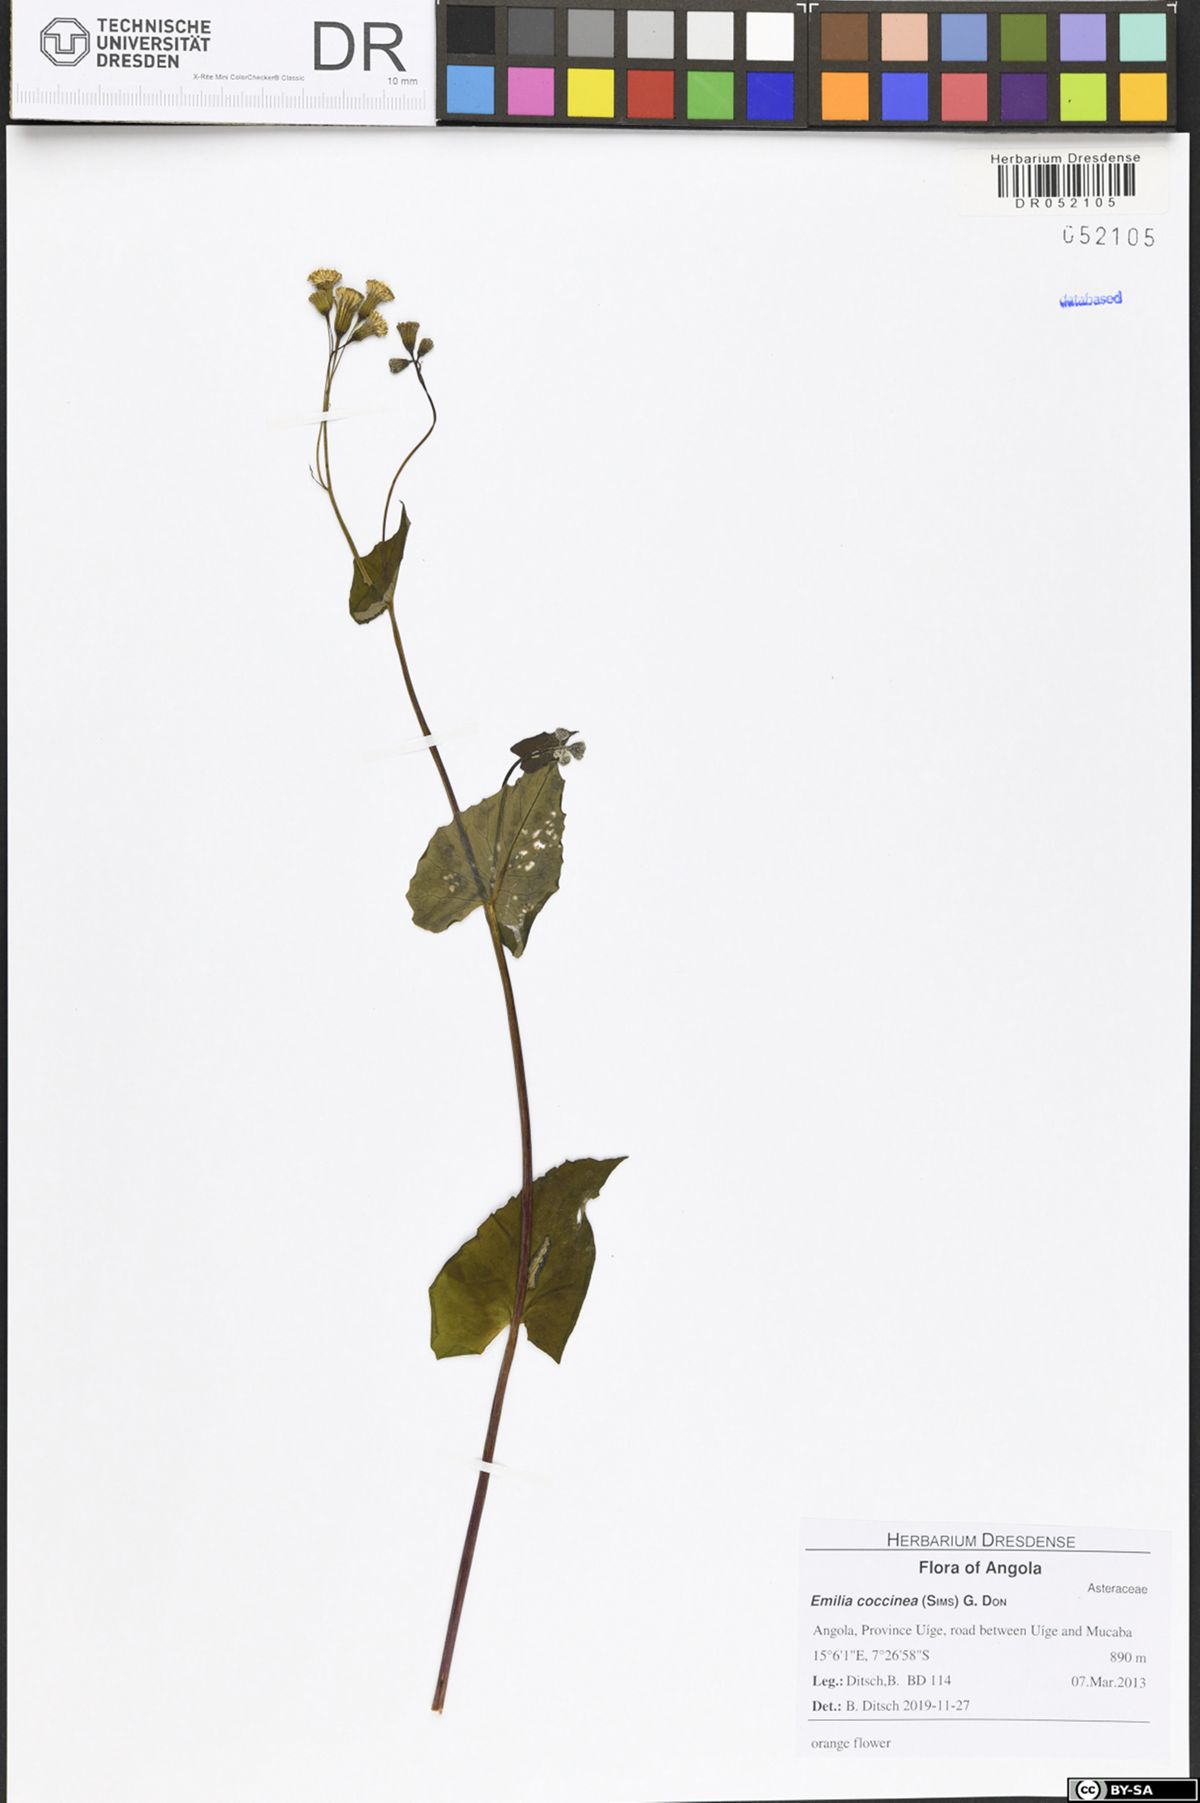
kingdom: Plantae
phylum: Tracheophyta
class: Magnoliopsida
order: Asterales
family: Asteraceae
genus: Emilia
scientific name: Emilia coccinea
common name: Scarlet tasselflower
